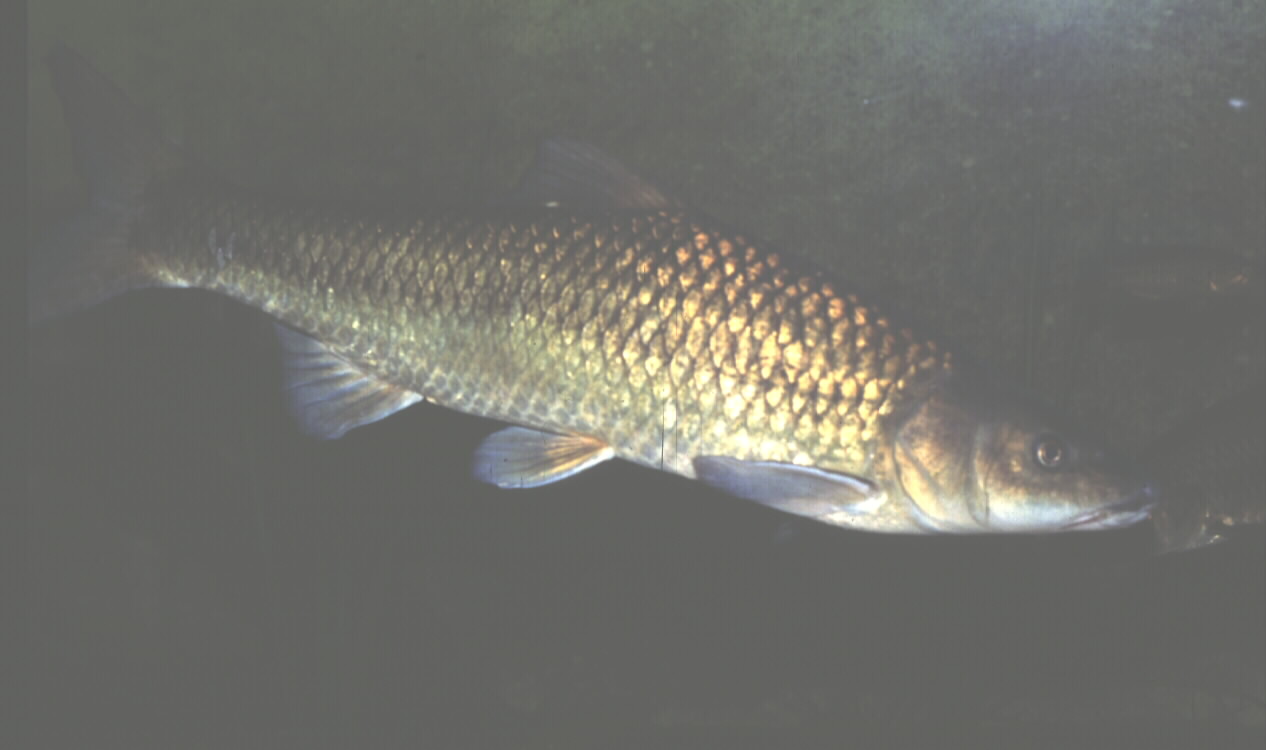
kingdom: Animalia
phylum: Chordata
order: Cypriniformes
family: Cyprinidae
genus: Pseudobarbus
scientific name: Pseudobarbus capensis
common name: Berg-breede river whitefish
